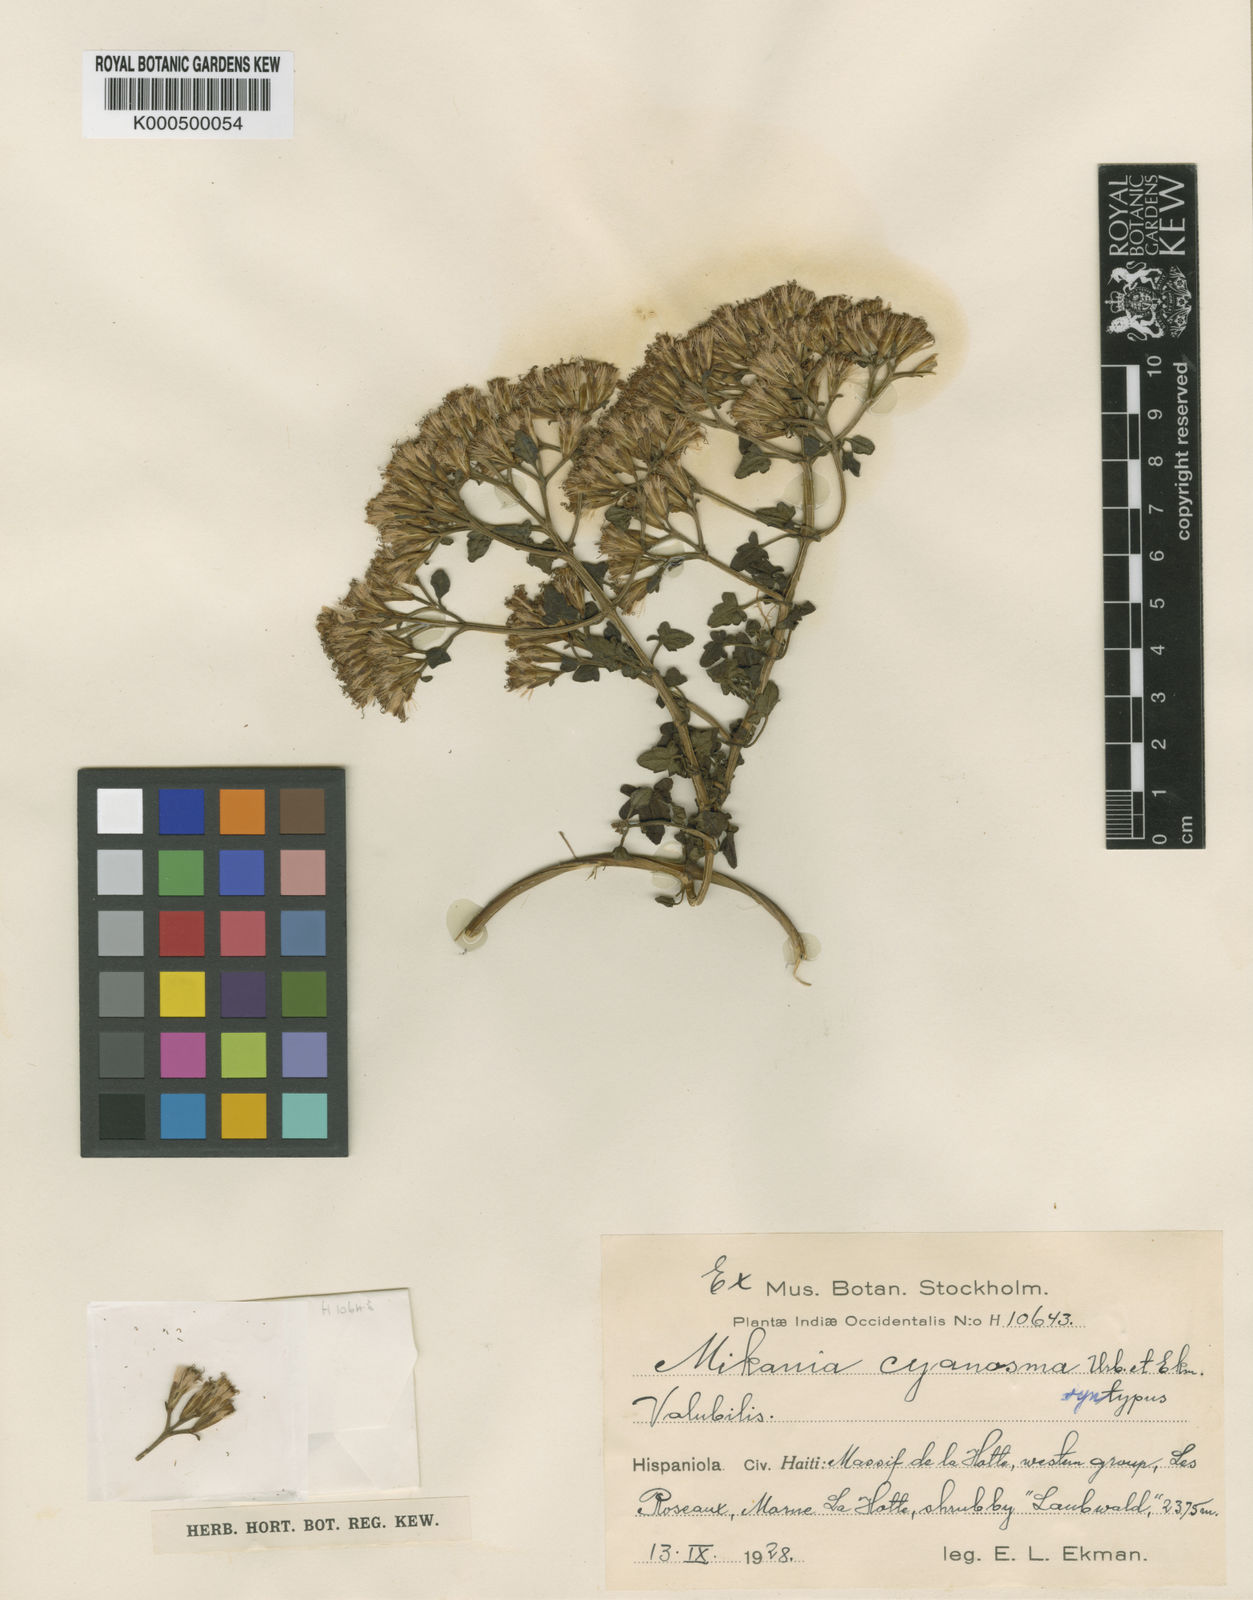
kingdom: Plantae
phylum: Tracheophyta
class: Magnoliopsida
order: Asterales
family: Asteraceae
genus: Mikania
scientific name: Mikania cyanosma
